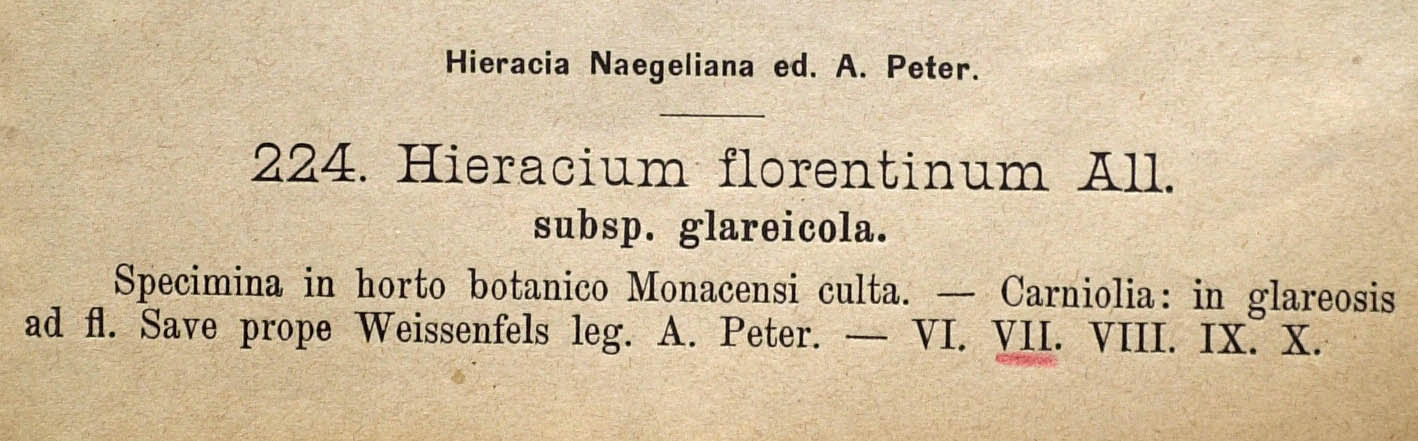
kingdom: Plantae
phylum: Tracheophyta
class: Magnoliopsida
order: Asterales
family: Asteraceae
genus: Pilosella
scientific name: Pilosella piloselloides
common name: Glaucous king-devil
